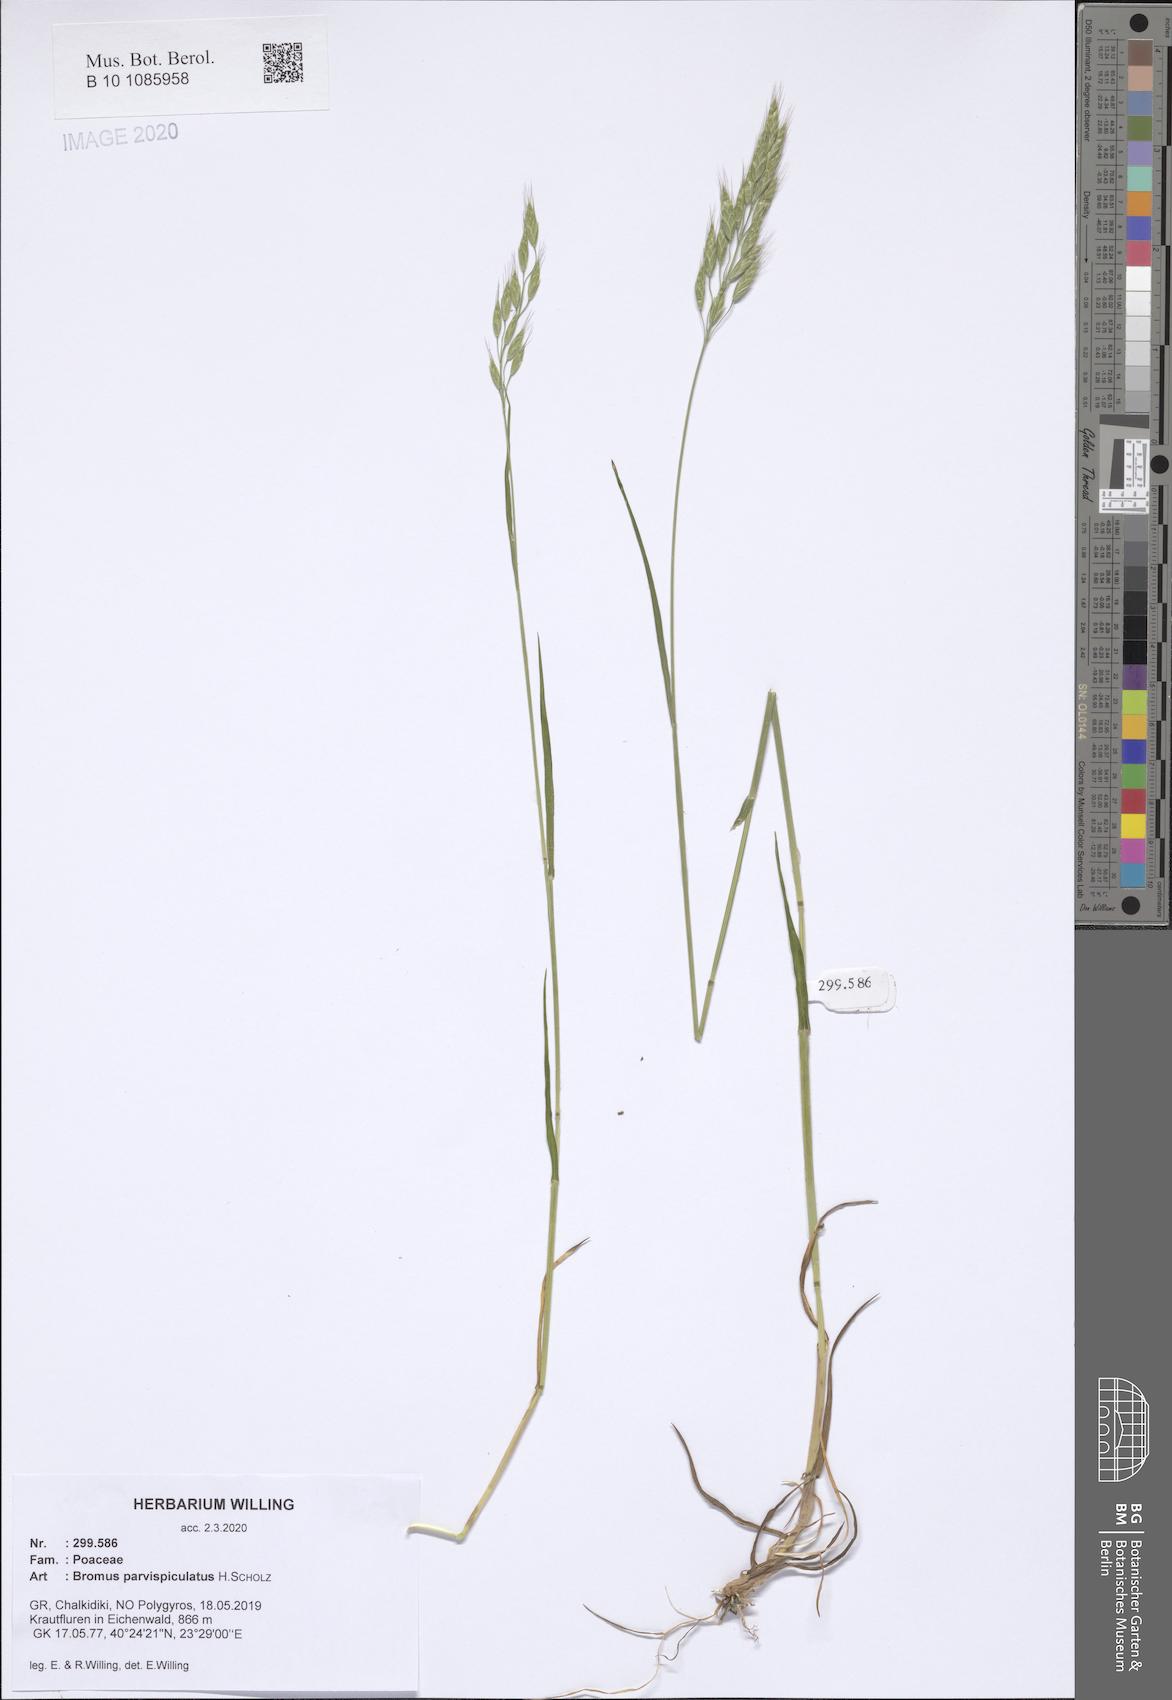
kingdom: Plantae
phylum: Tracheophyta
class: Liliopsida
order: Poales
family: Poaceae
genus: Bromus
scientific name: Bromus hordeaceus
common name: Soft brome
